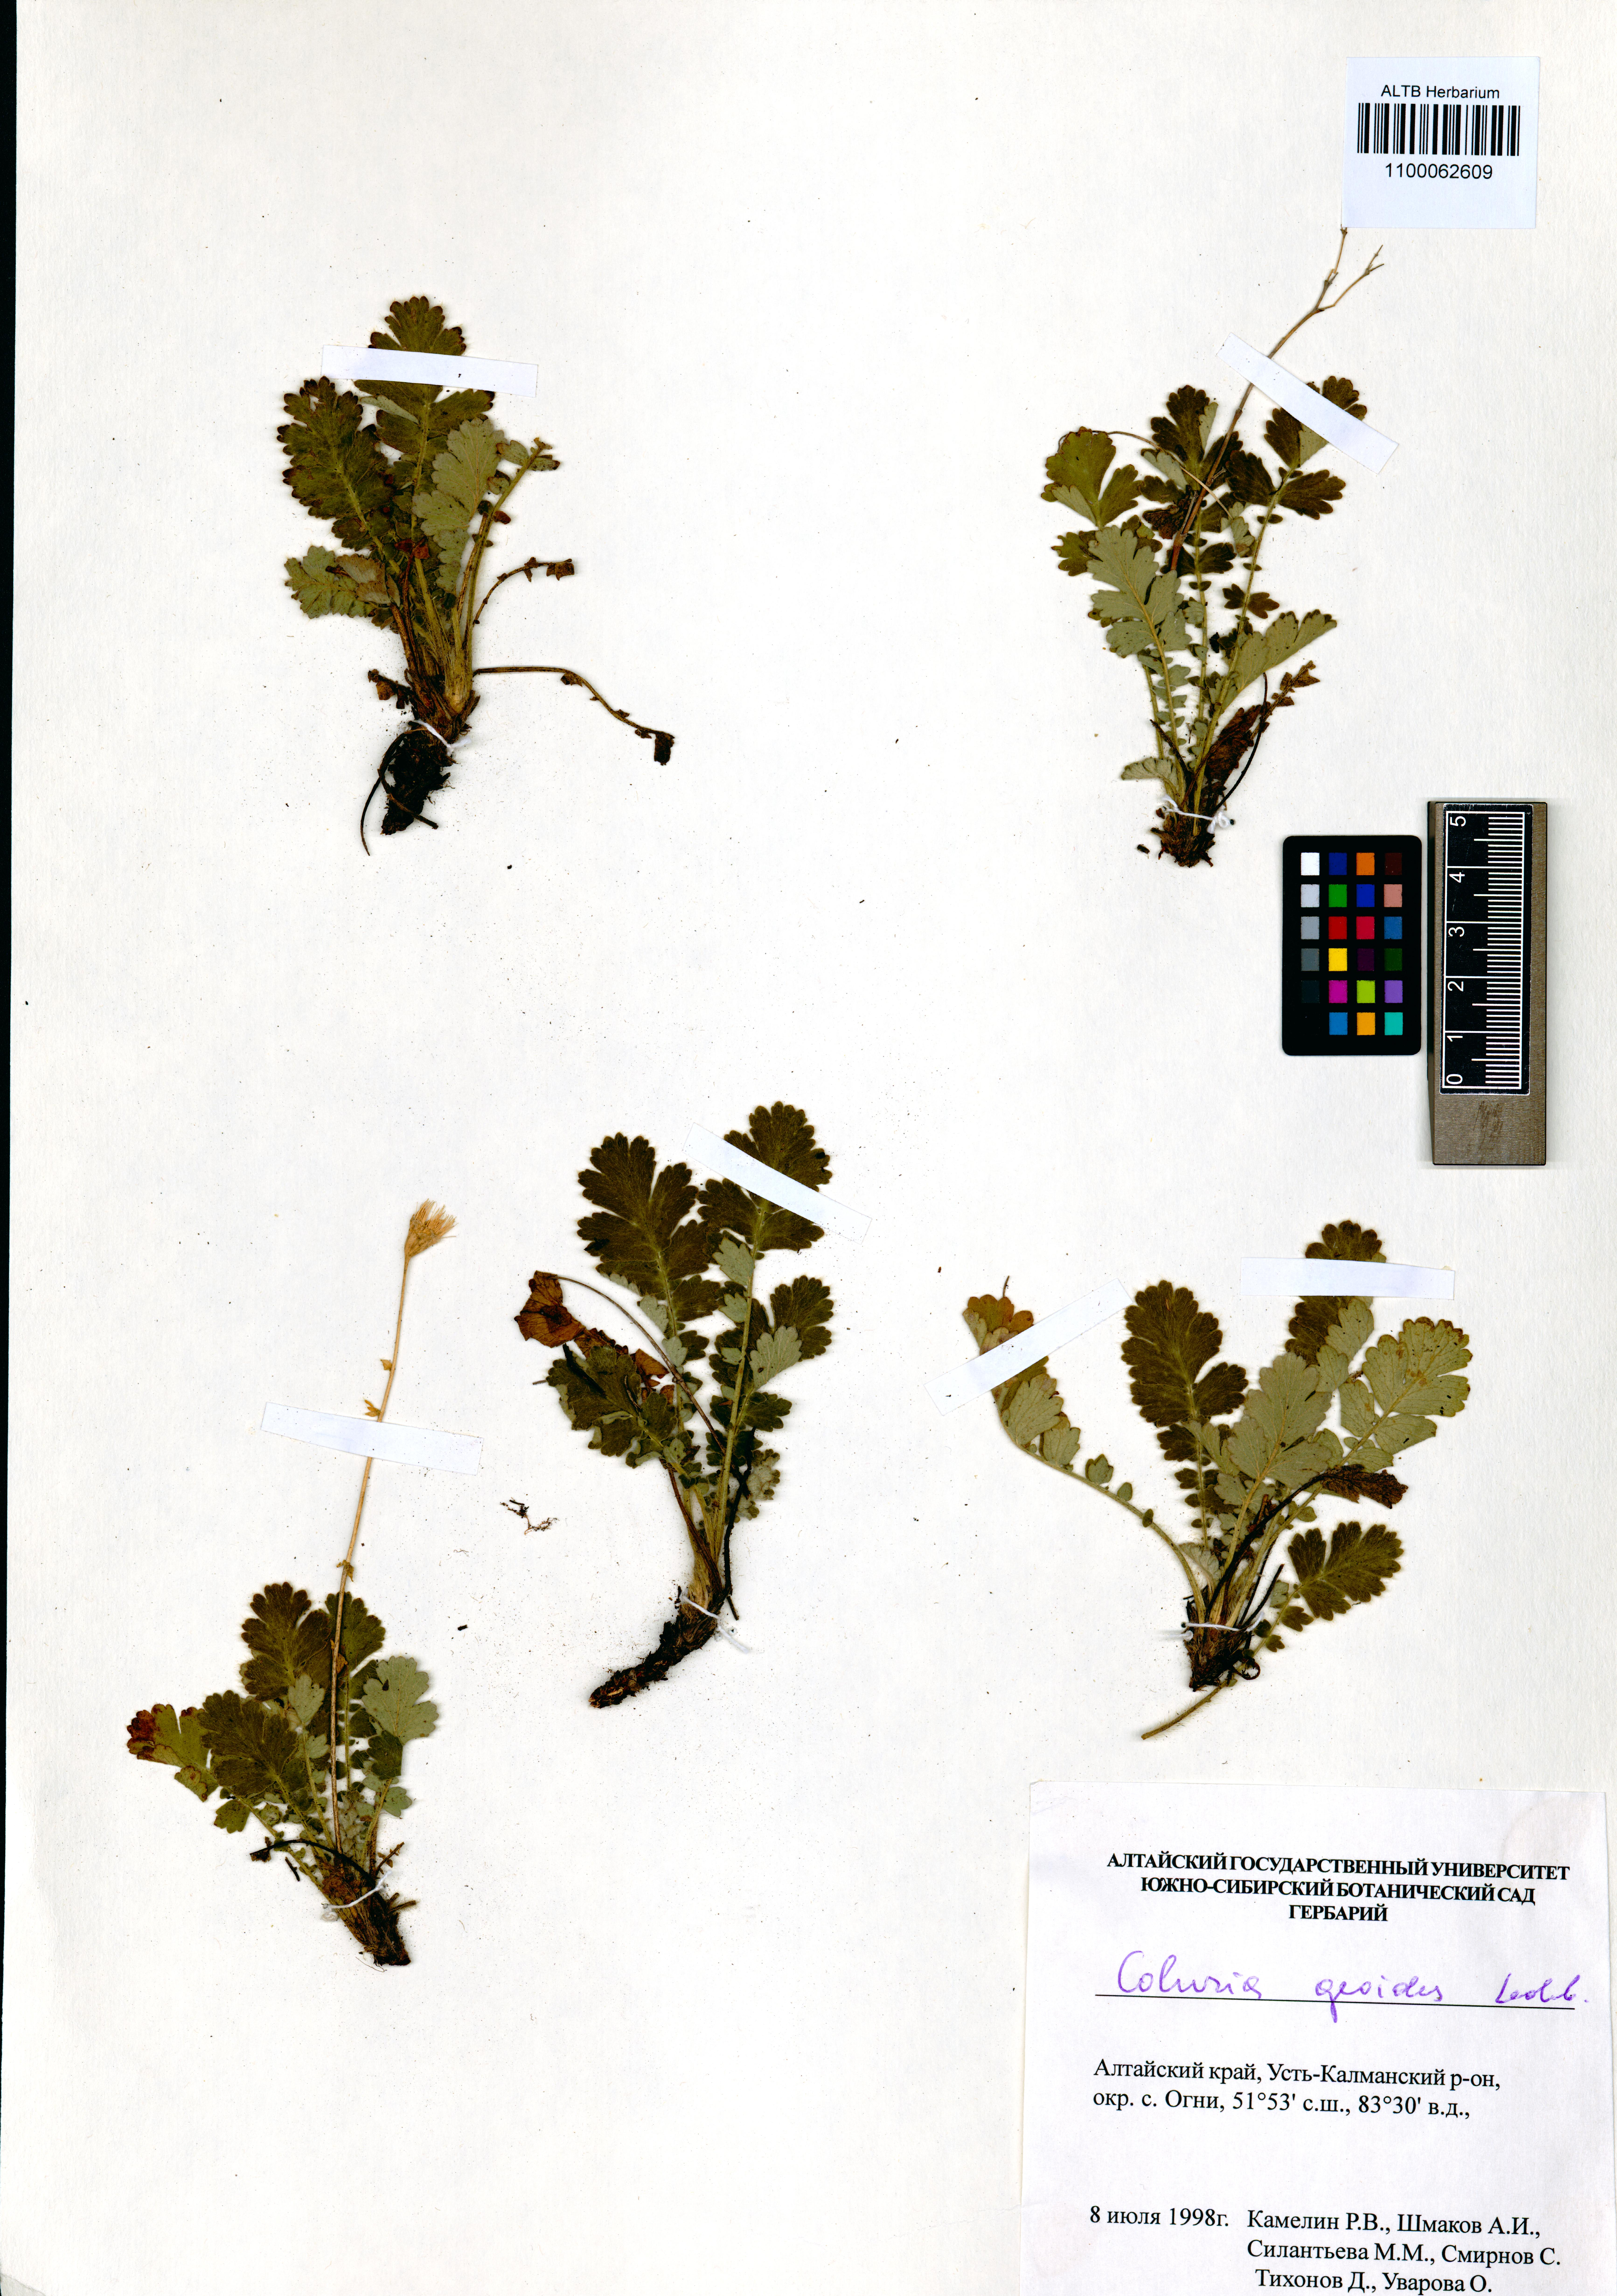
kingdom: Plantae
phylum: Tracheophyta
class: Magnoliopsida
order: Rosales
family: Rosaceae
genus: Geum
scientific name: Geum geoides
